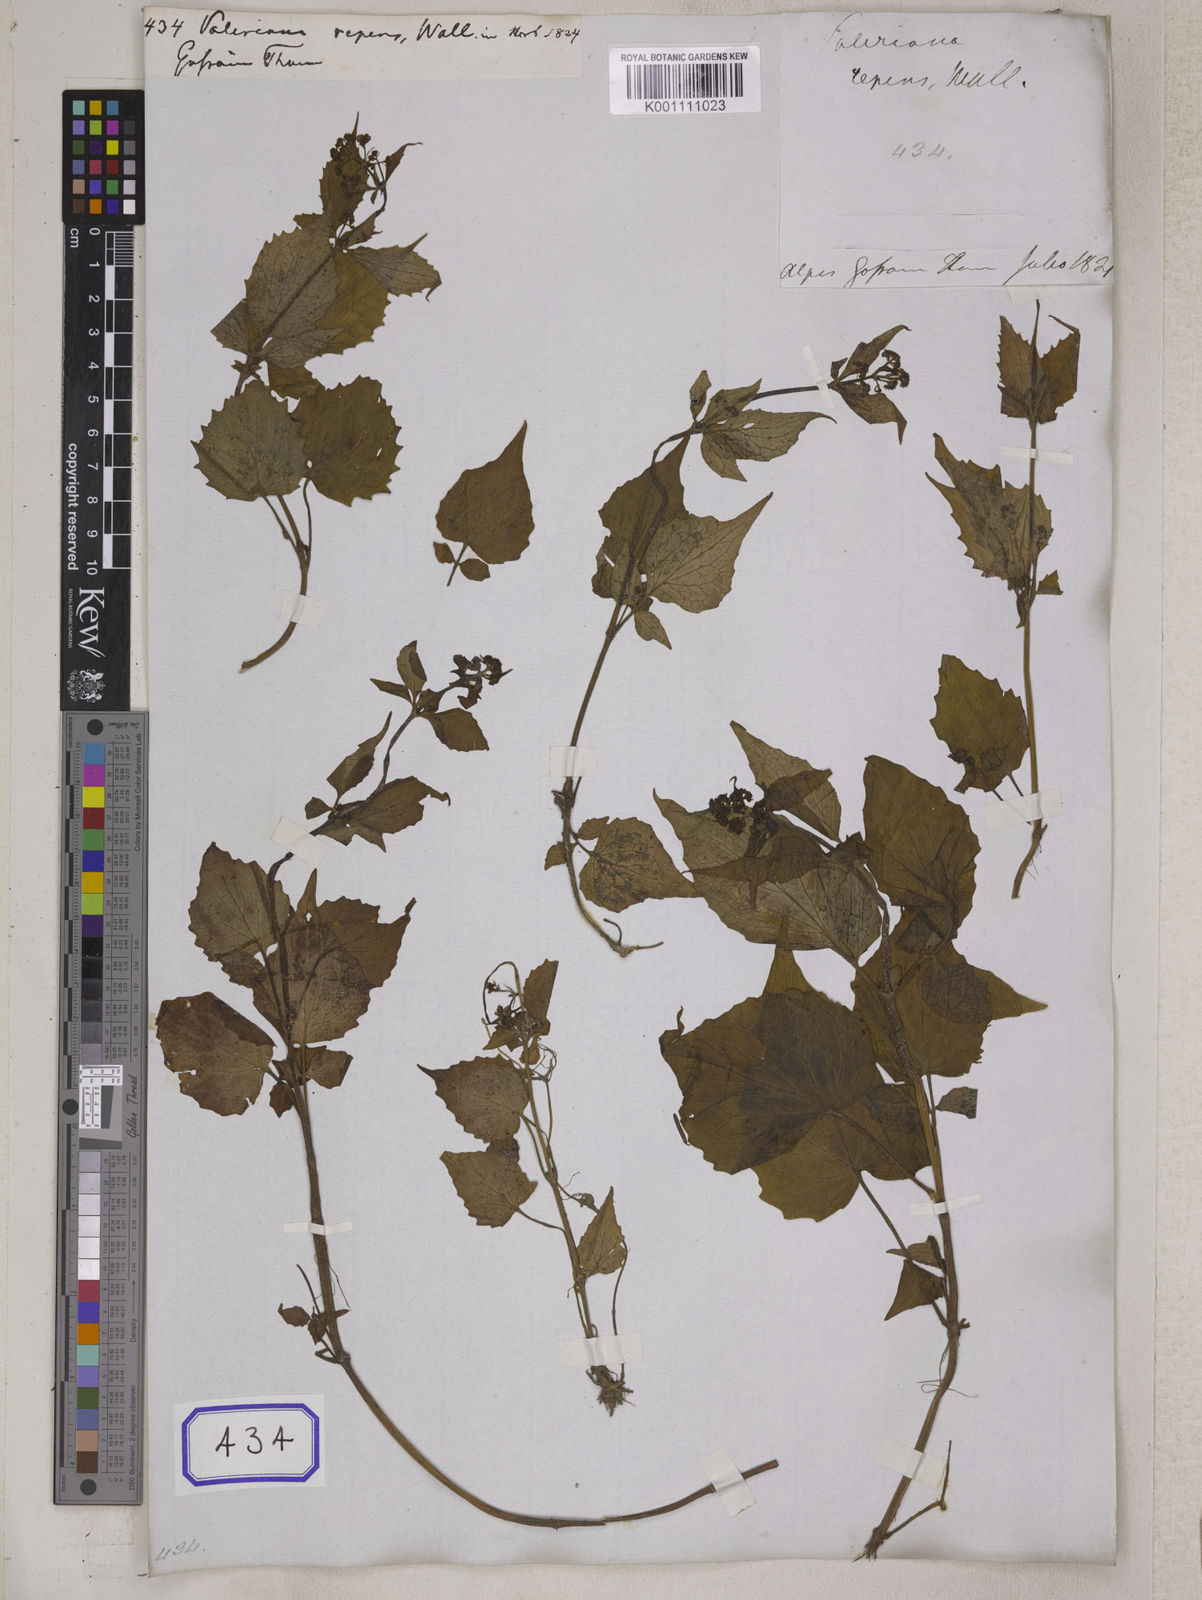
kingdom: Plantae
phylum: Tracheophyta
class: Magnoliopsida
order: Dipsacales
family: Caprifoliaceae
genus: Valeriana
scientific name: Valeriana
